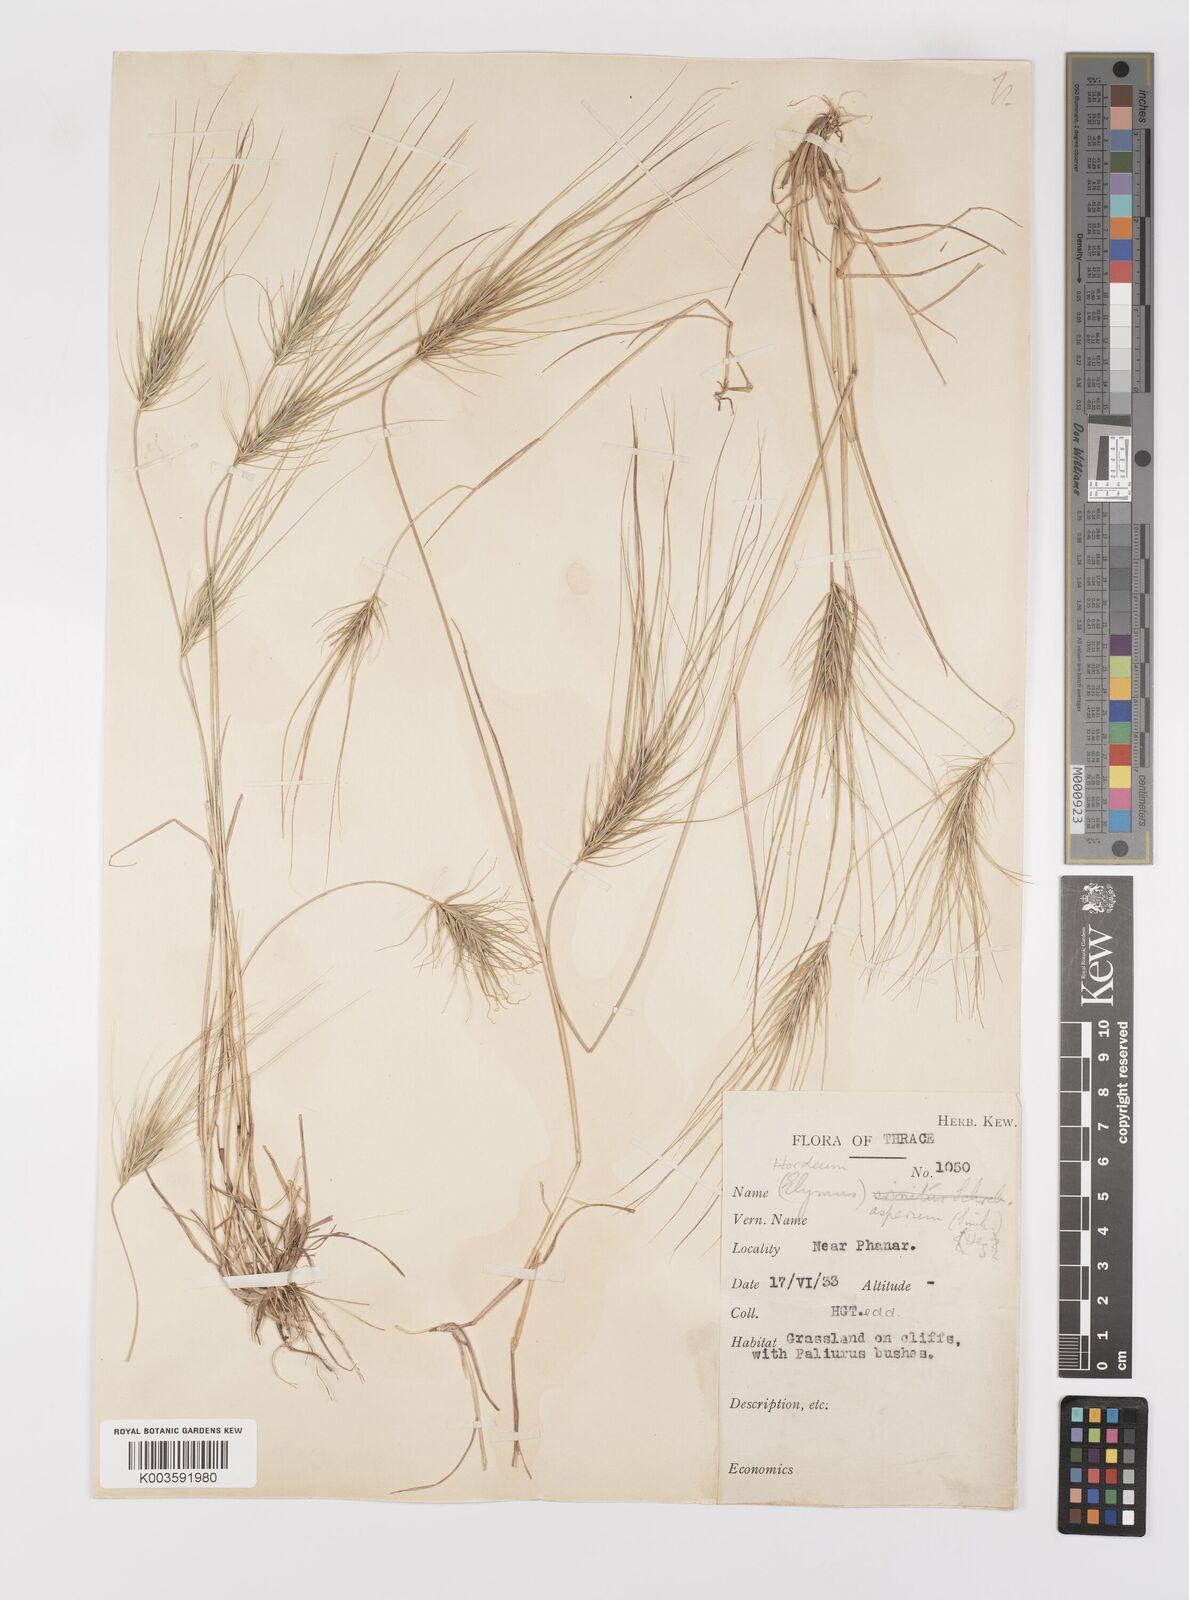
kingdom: Plantae
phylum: Tracheophyta
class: Liliopsida
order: Poales
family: Poaceae
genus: Taeniatherum
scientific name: Taeniatherum caput-medusae
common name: Medusahead
